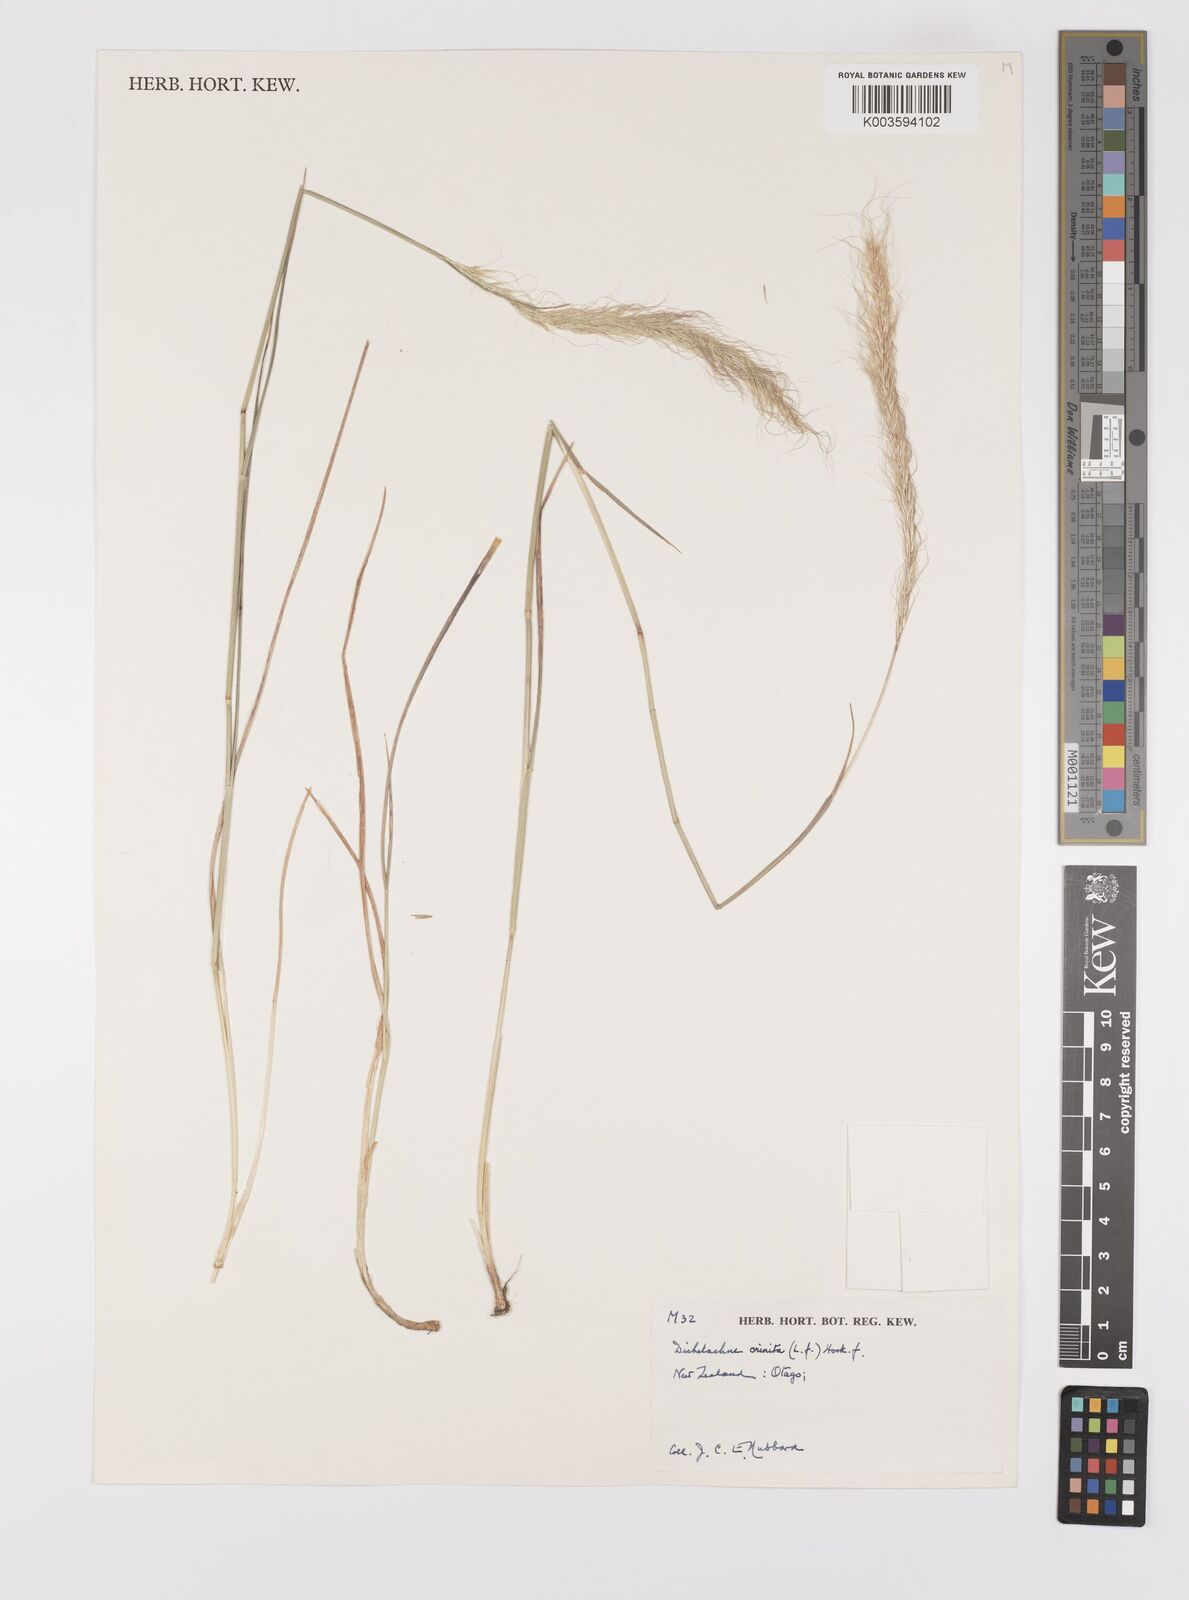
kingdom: Plantae
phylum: Tracheophyta
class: Liliopsida
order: Poales
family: Poaceae
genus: Dichelachne
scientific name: Dichelachne crinita
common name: Clovenfoot plumegrass
